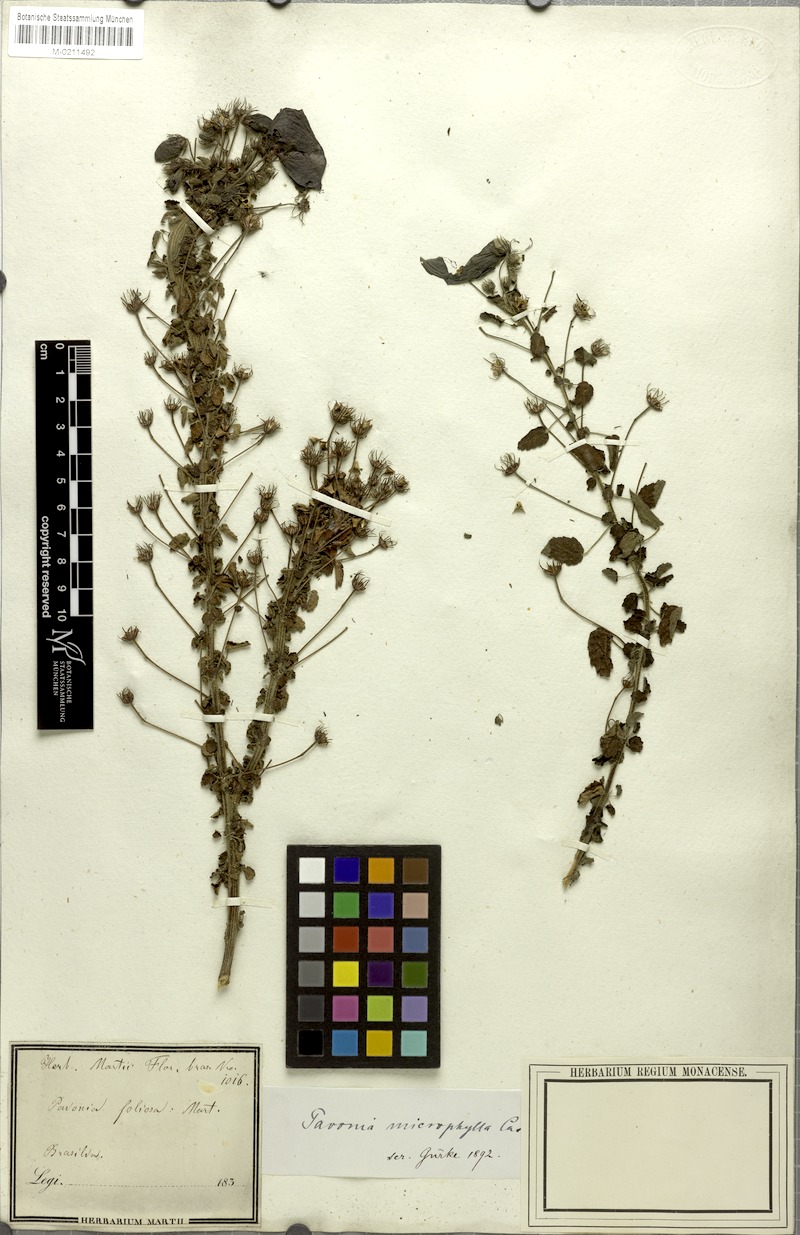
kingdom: Plantae
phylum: Tracheophyta
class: Magnoliopsida
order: Malvales
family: Malvaceae
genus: Pavonia
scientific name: Pavonia martii
